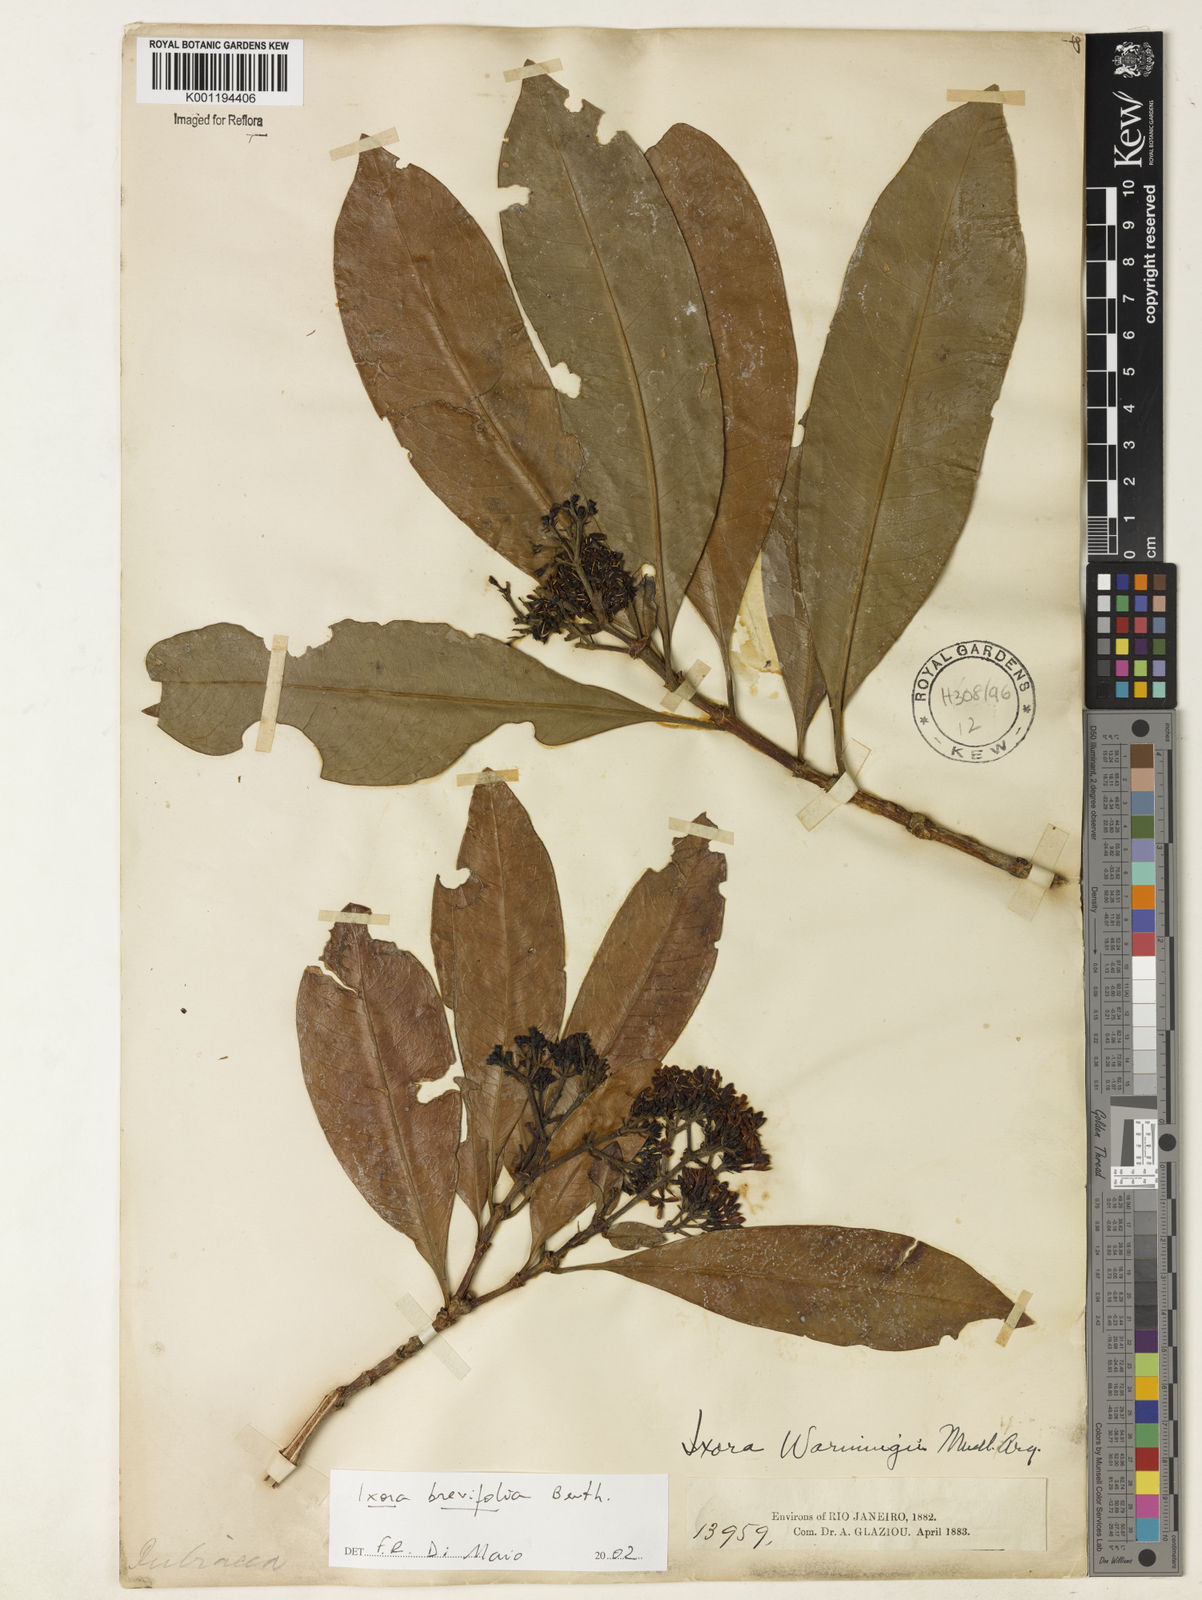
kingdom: Plantae
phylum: Tracheophyta
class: Magnoliopsida
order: Gentianales
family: Rubiaceae
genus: Ixora
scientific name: Ixora brevifolia
